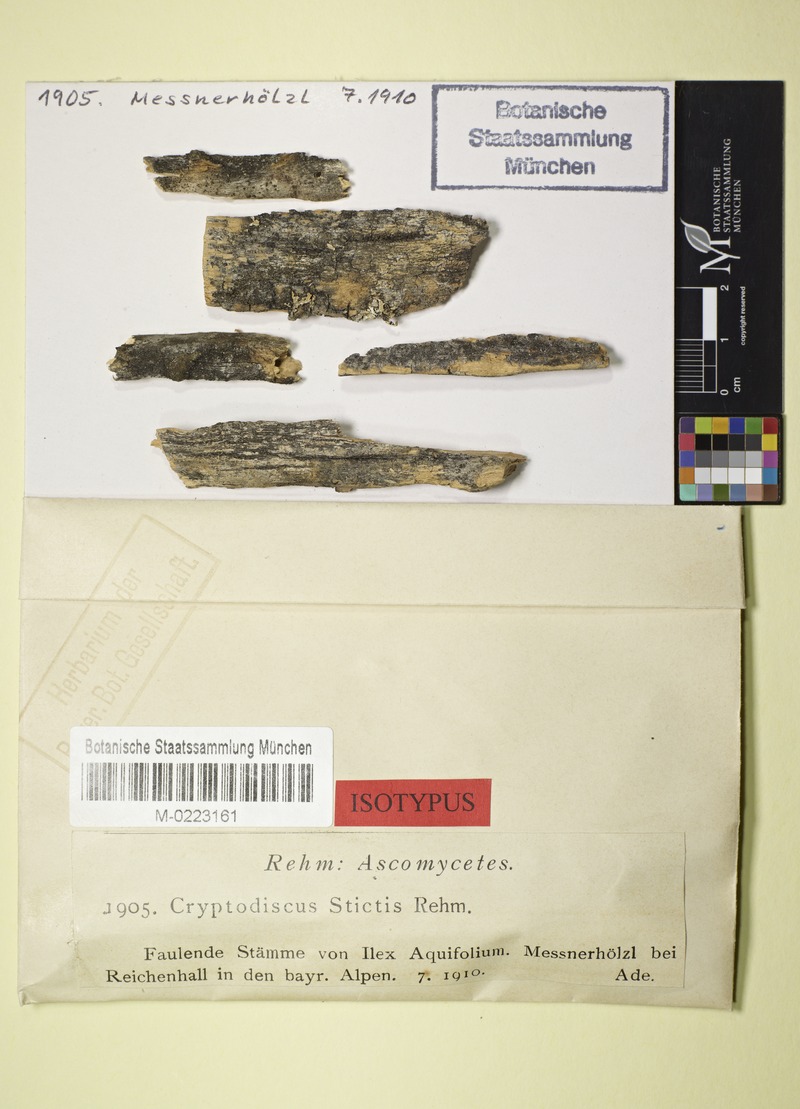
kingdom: Fungi
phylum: Ascomycota
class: Lecanoromycetes
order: Ostropales
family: Stictidaceae
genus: Cryptodiscus
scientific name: Cryptodiscus stictis
